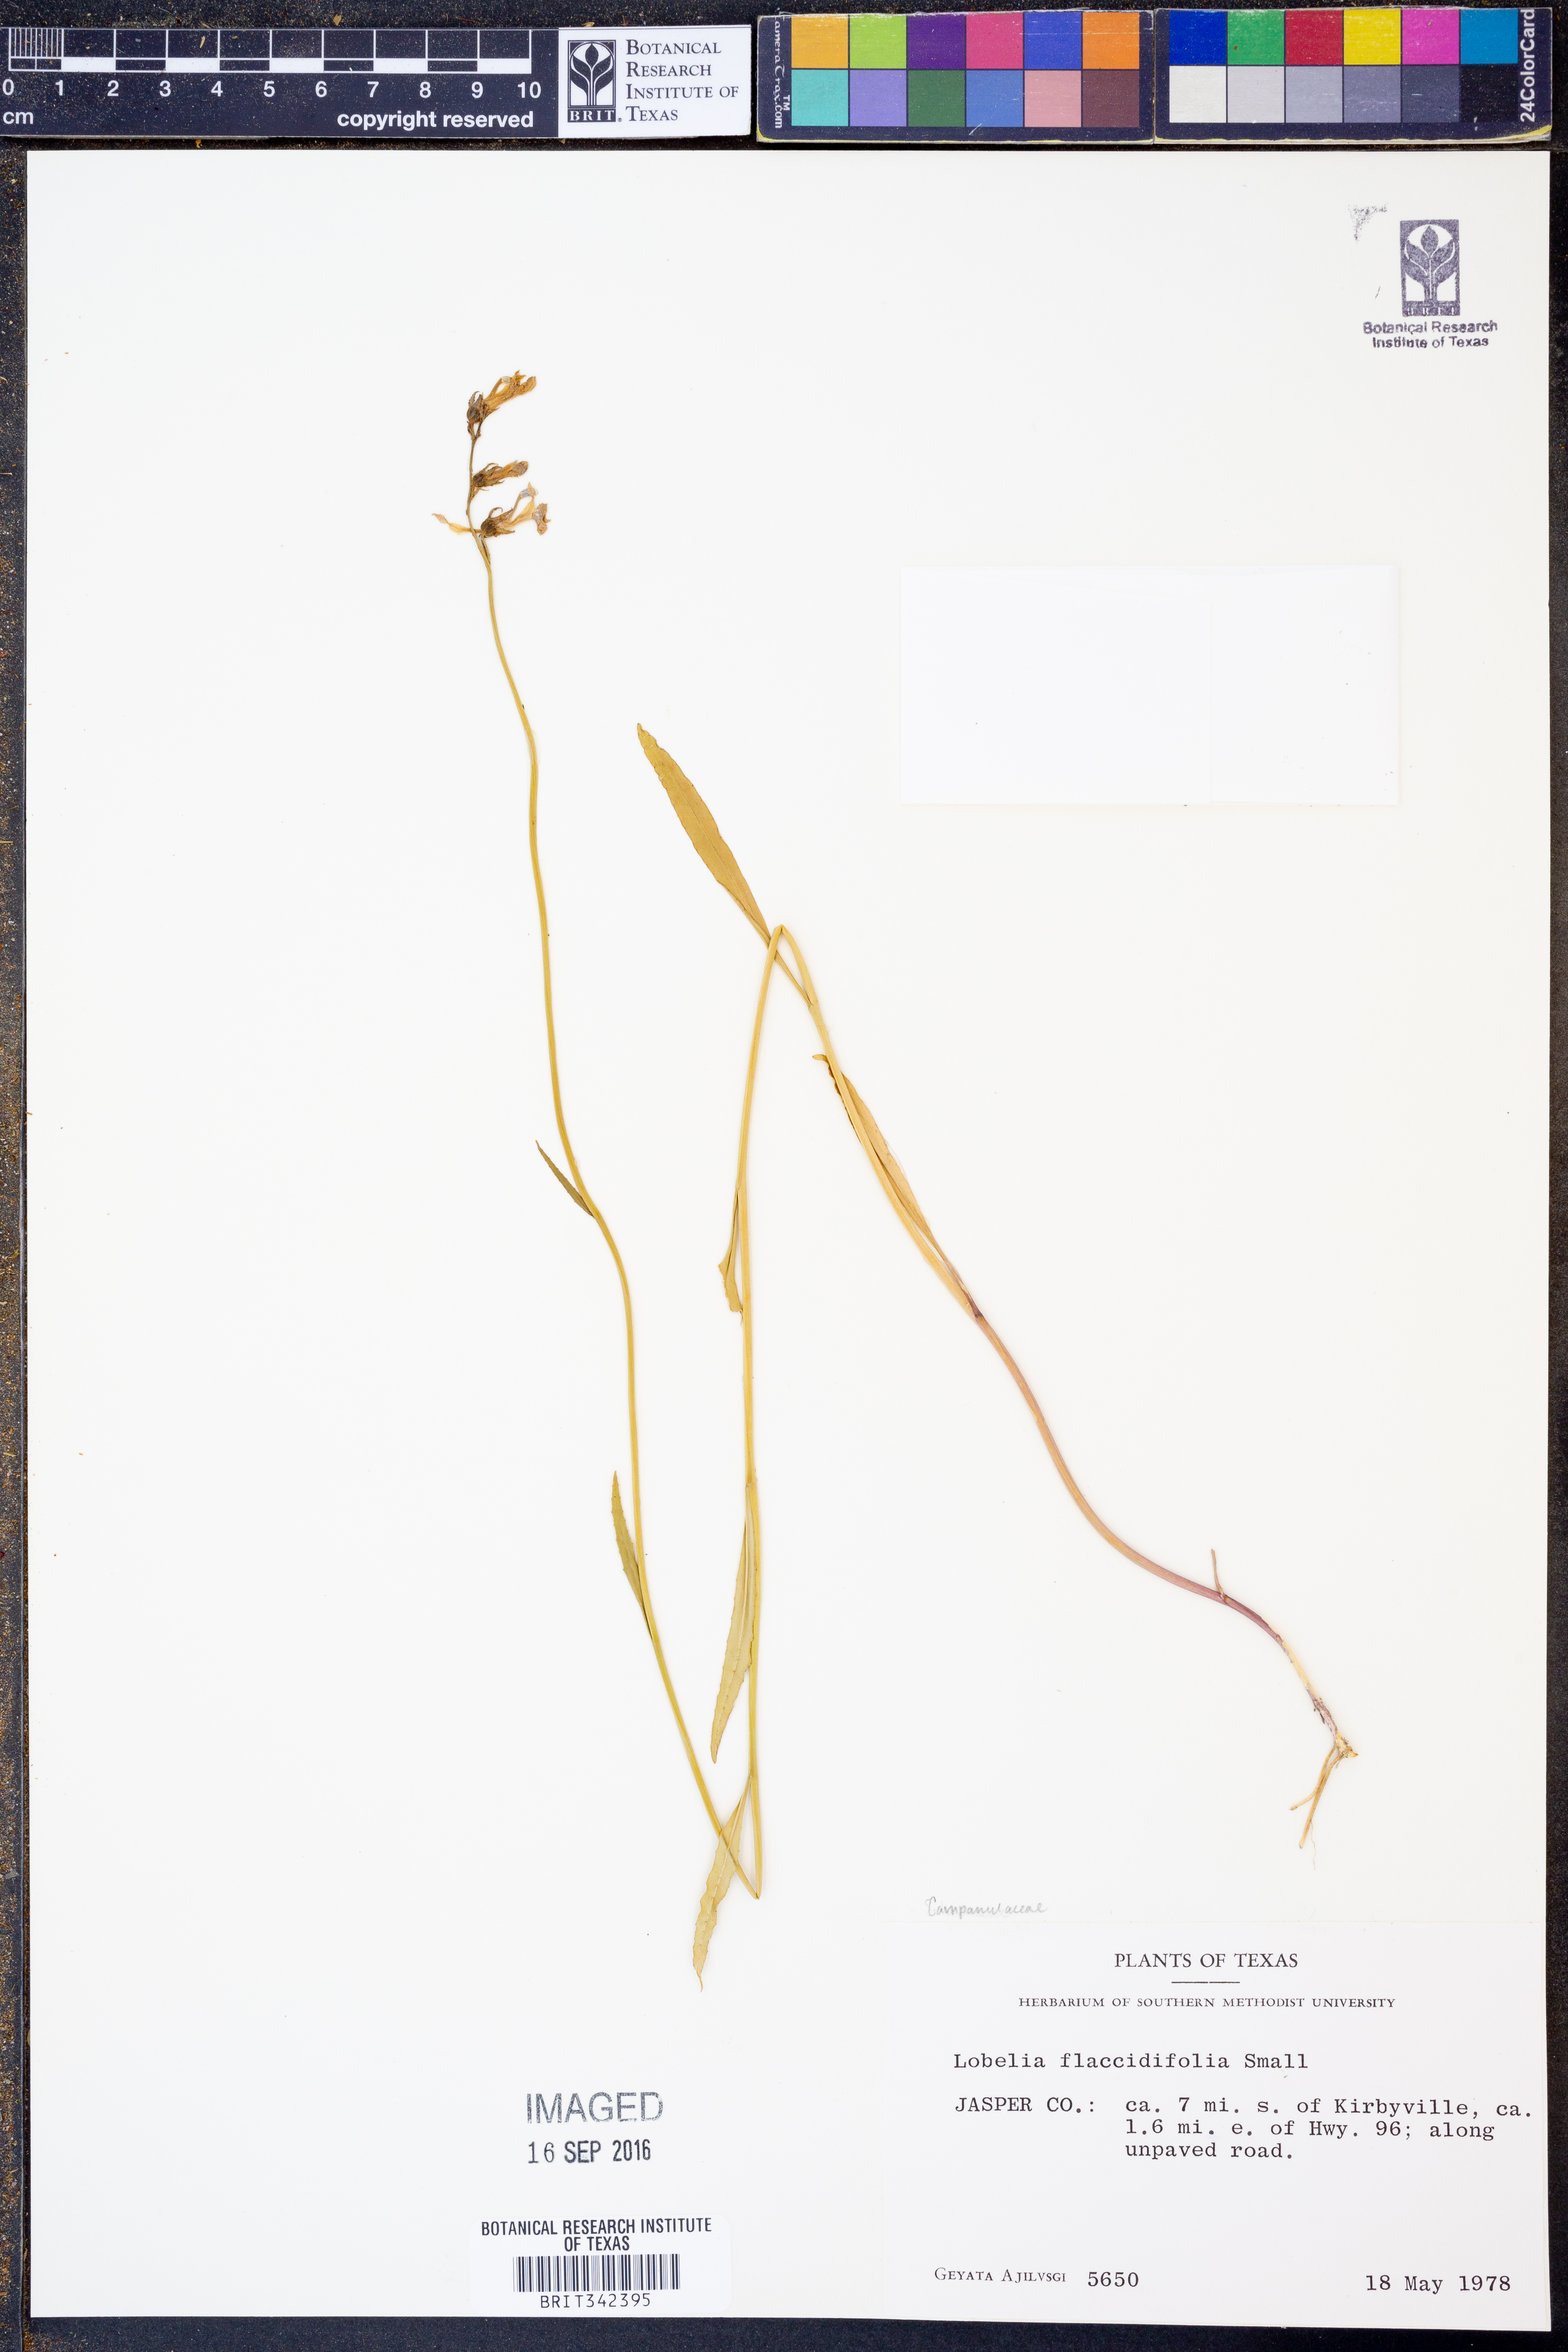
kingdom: Plantae
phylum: Tracheophyta
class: Magnoliopsida
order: Asterales
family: Campanulaceae
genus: Lobelia
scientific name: Lobelia flaccidifolia
